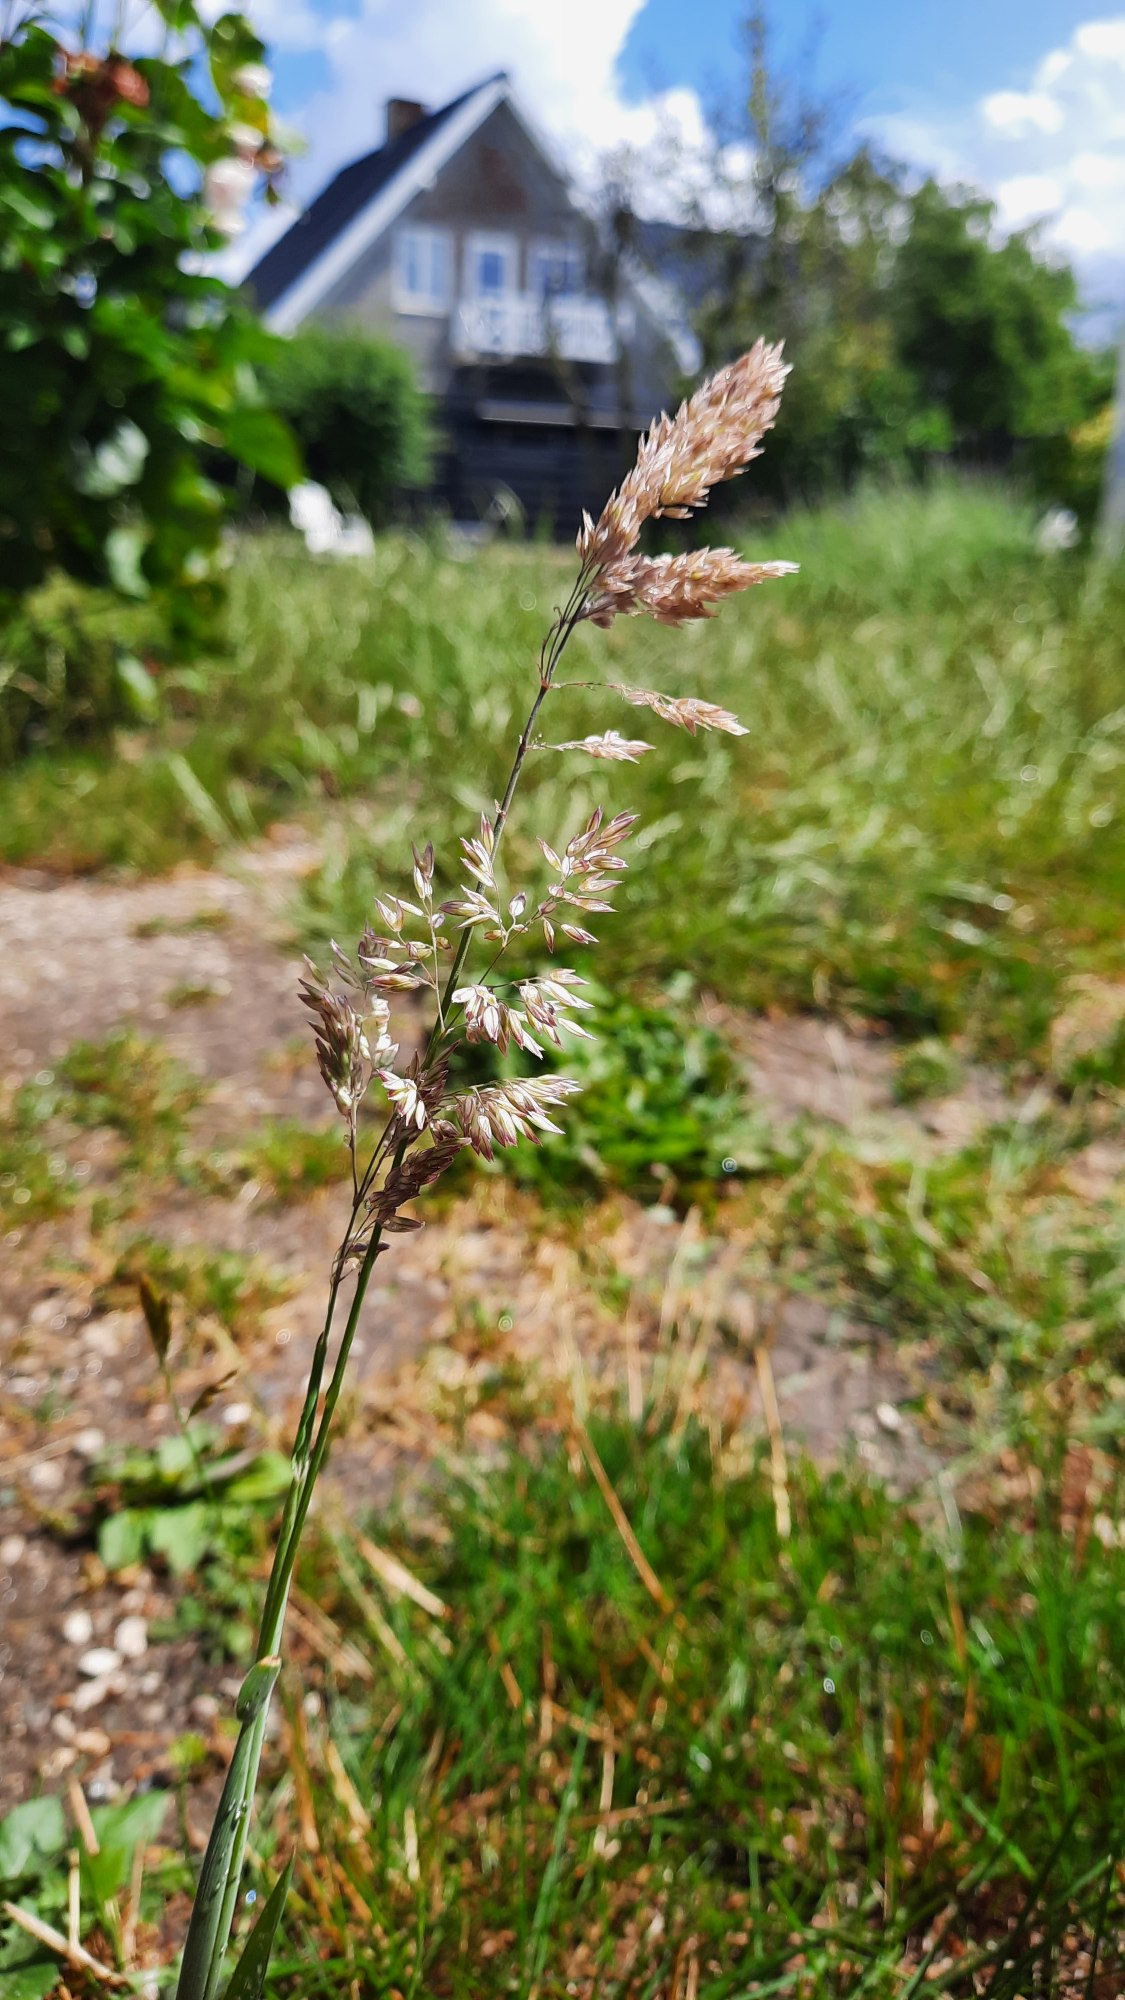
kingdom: Plantae
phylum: Tracheophyta
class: Liliopsida
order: Poales
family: Poaceae
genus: Holcus
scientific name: Holcus lanatus
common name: Fløjlsgræs
